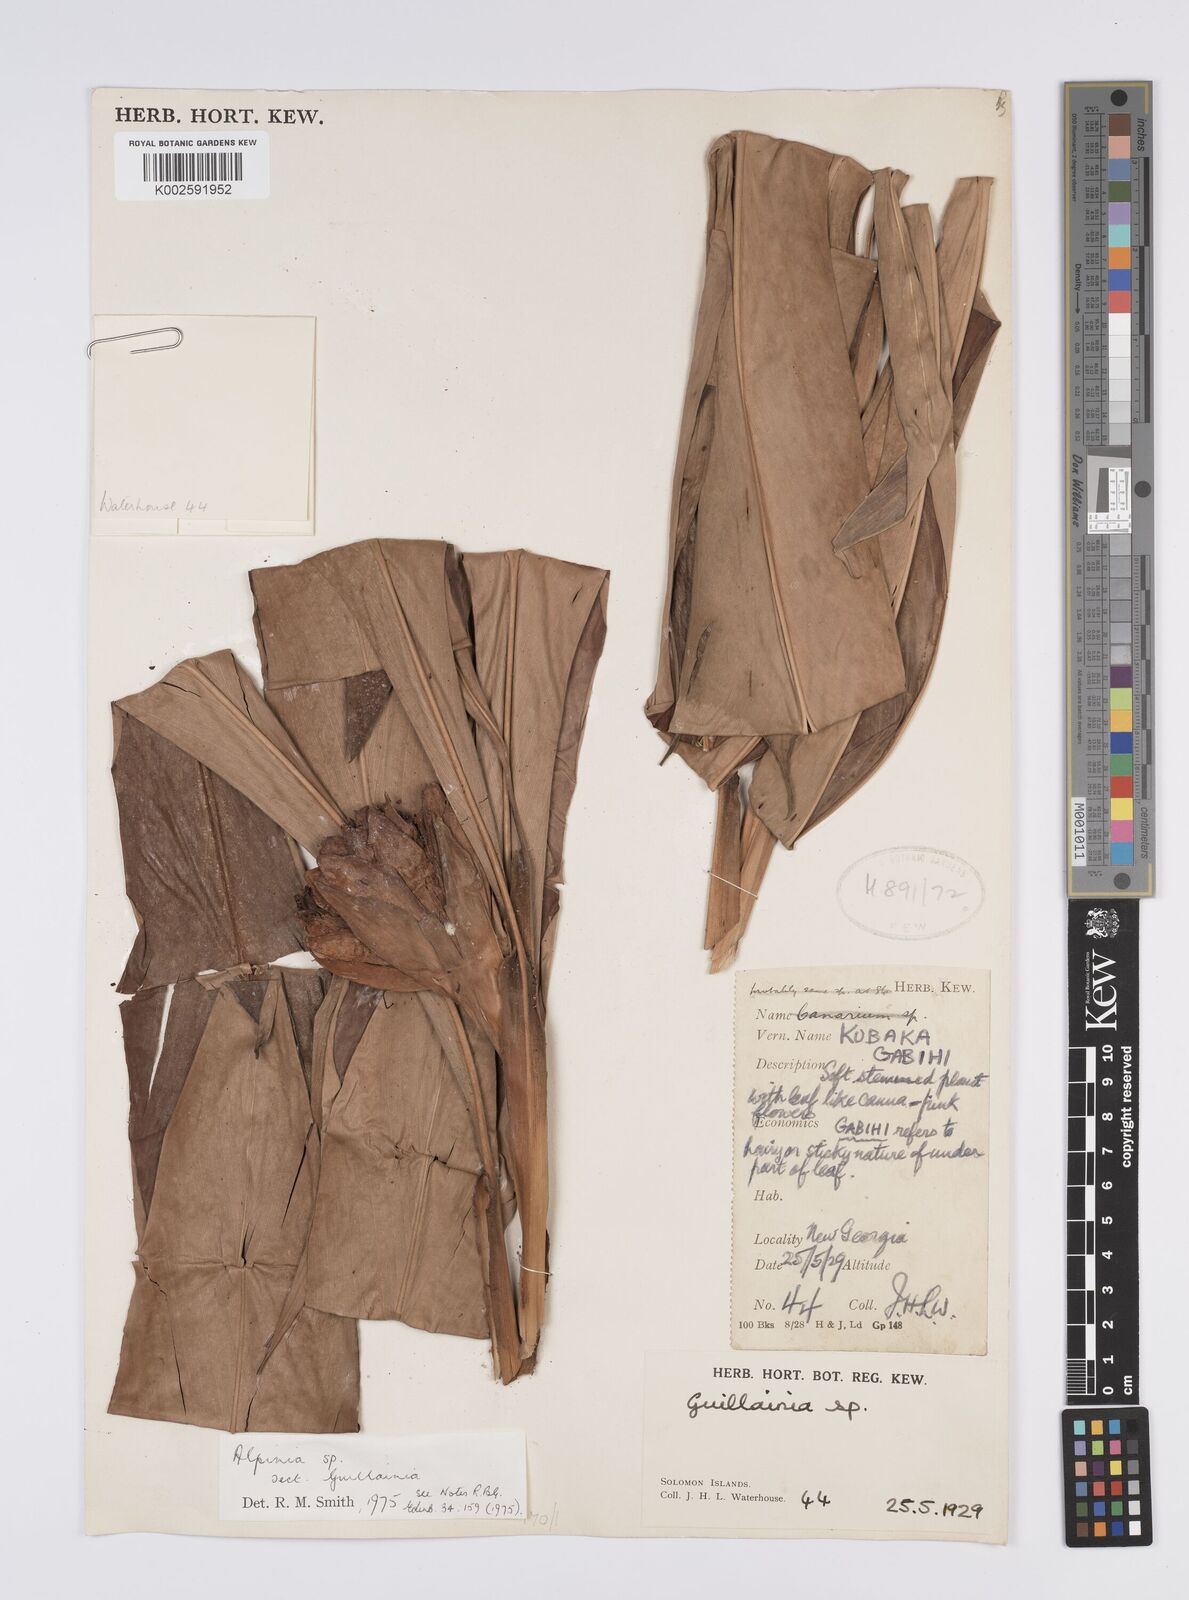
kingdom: Plantae
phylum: Tracheophyta
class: Liliopsida
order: Zingiberales
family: Zingiberaceae
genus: Alpinia
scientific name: Alpinia
